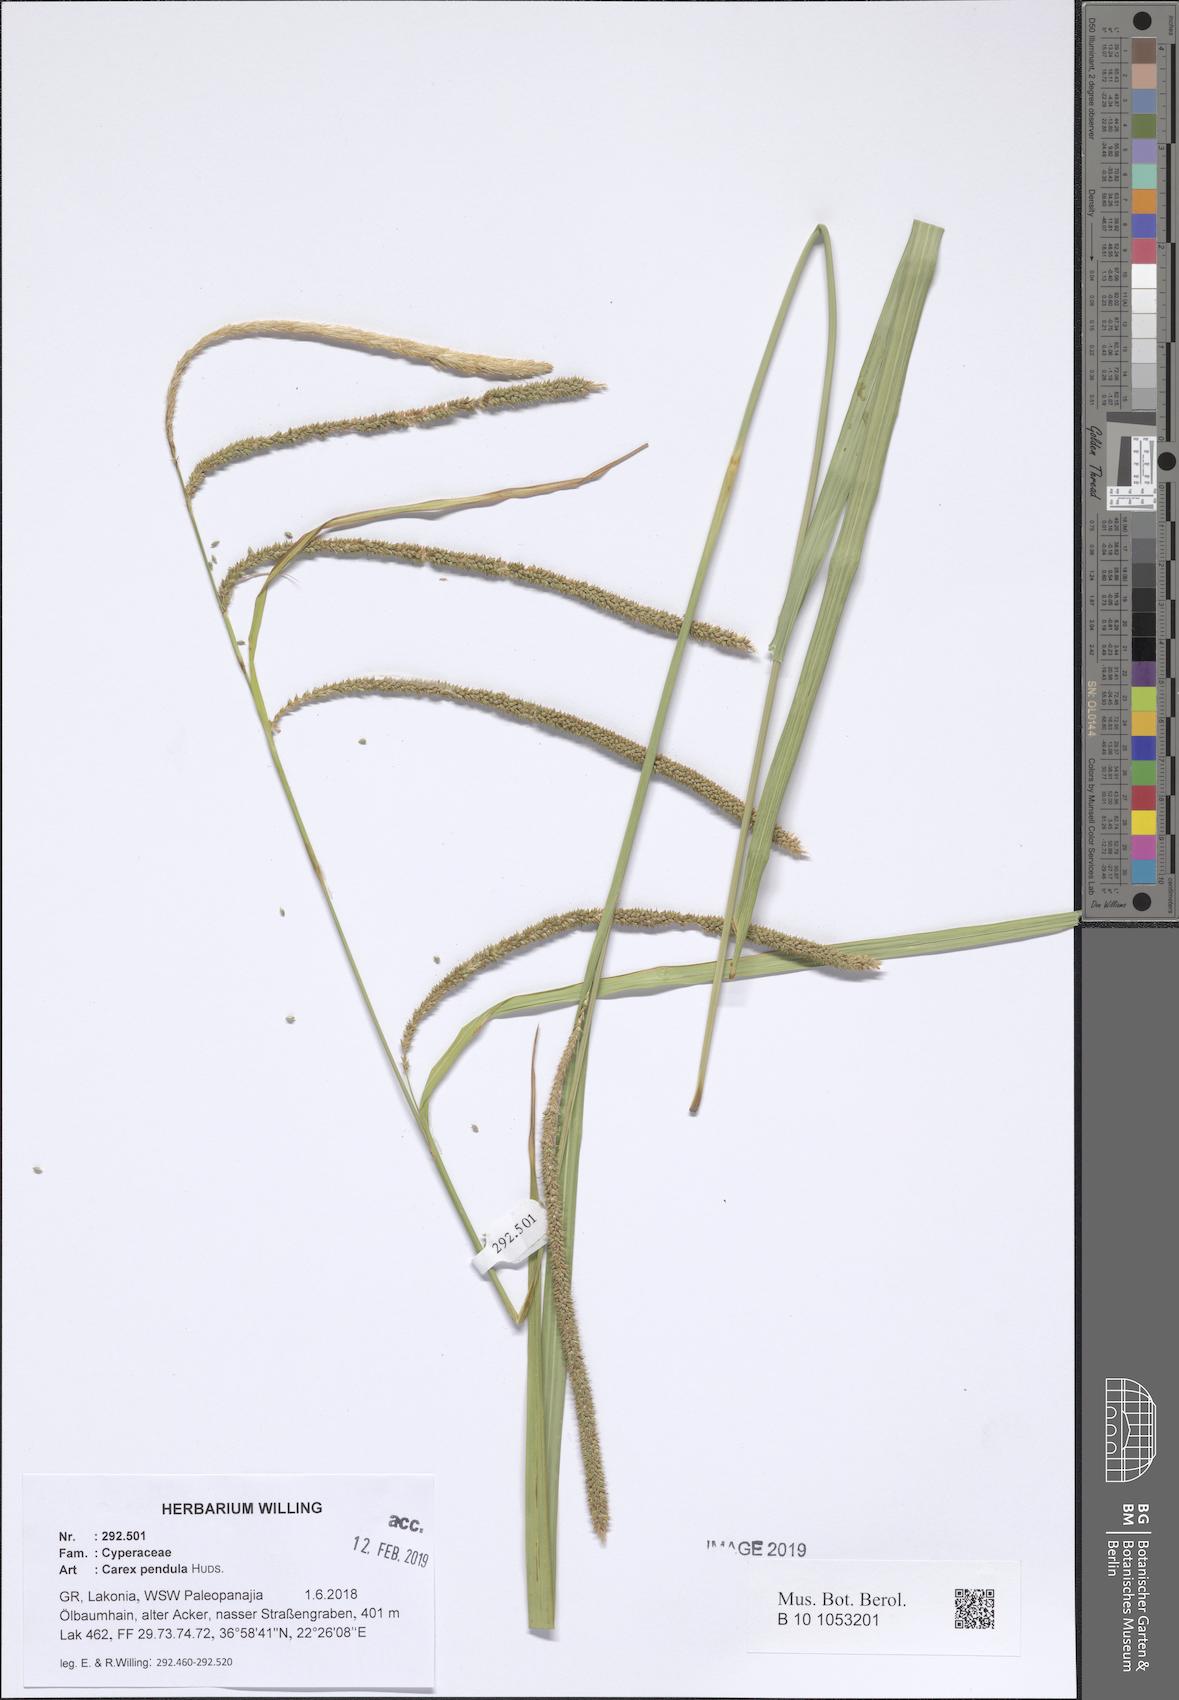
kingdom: Plantae
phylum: Tracheophyta
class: Liliopsida
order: Poales
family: Cyperaceae
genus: Carex
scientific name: Carex pendula
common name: Pendulous sedge
